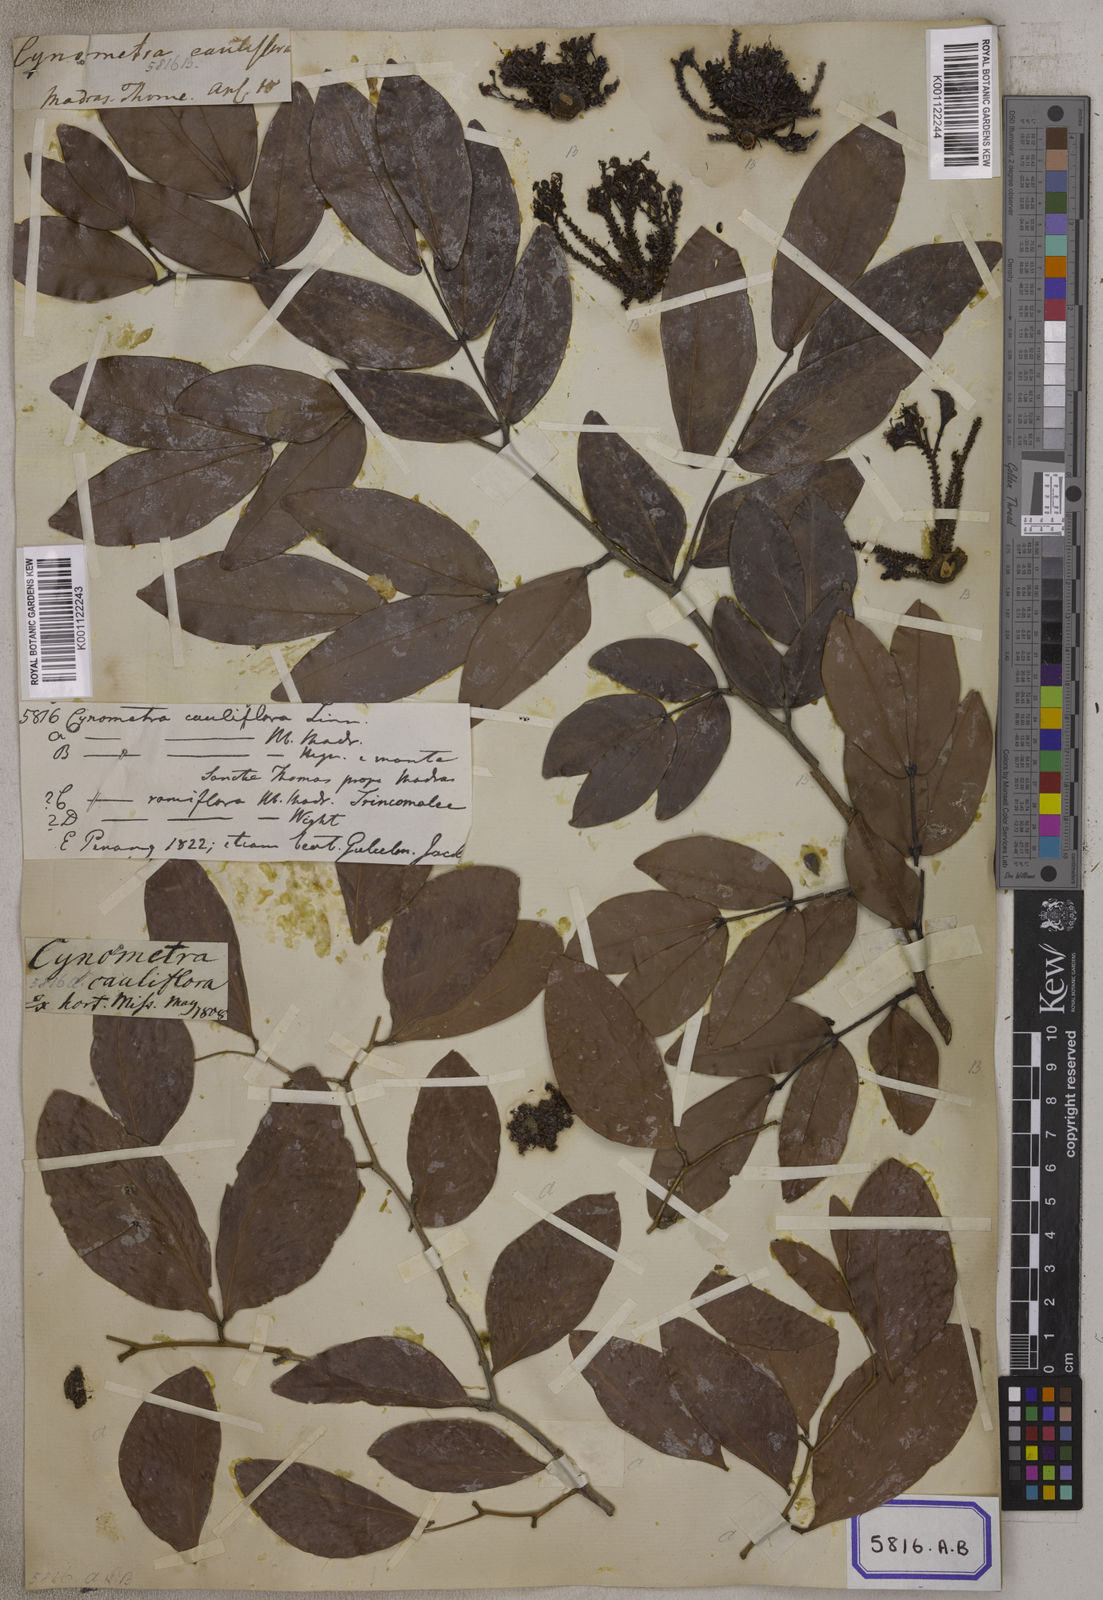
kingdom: Plantae
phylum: Tracheophyta
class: Magnoliopsida
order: Fabales
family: Fabaceae
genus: Cynometra
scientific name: Cynometra cauliflora
